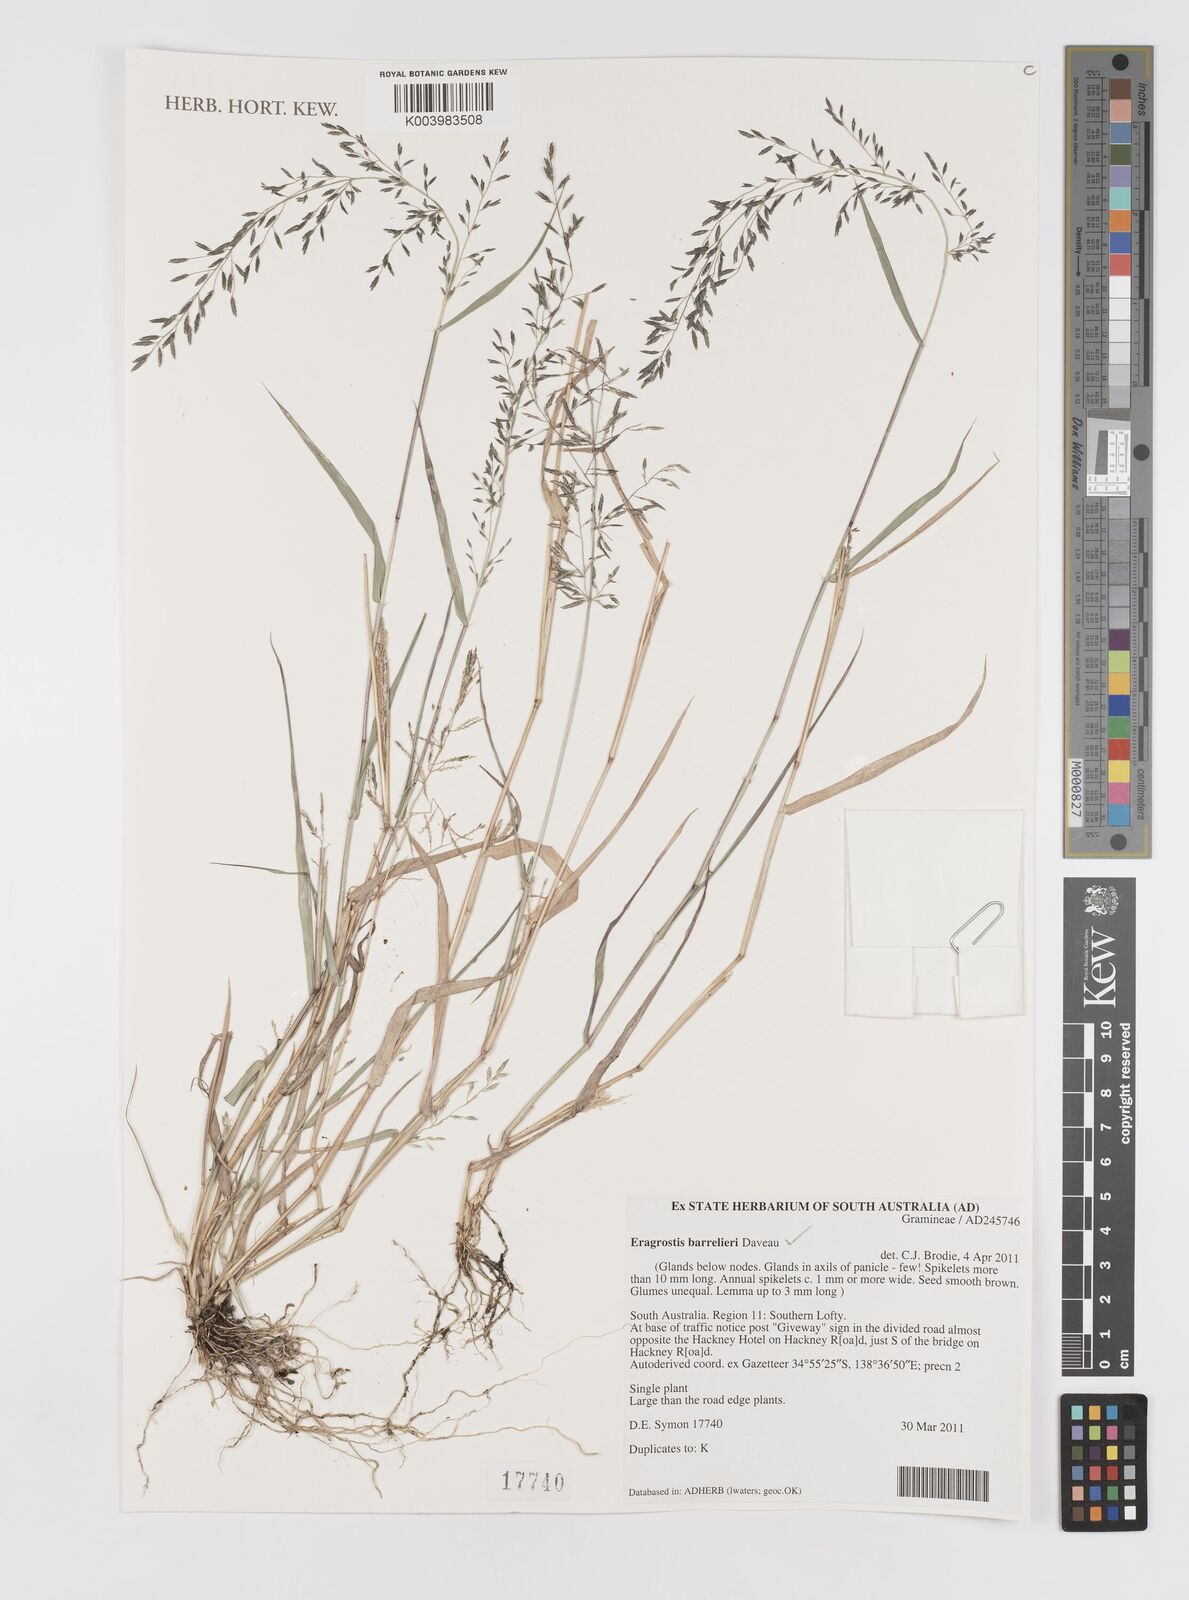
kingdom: Plantae
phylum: Tracheophyta
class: Liliopsida
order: Poales
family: Poaceae
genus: Eragrostis
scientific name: Eragrostis barrelieri
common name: Mediterranean lovegrass
